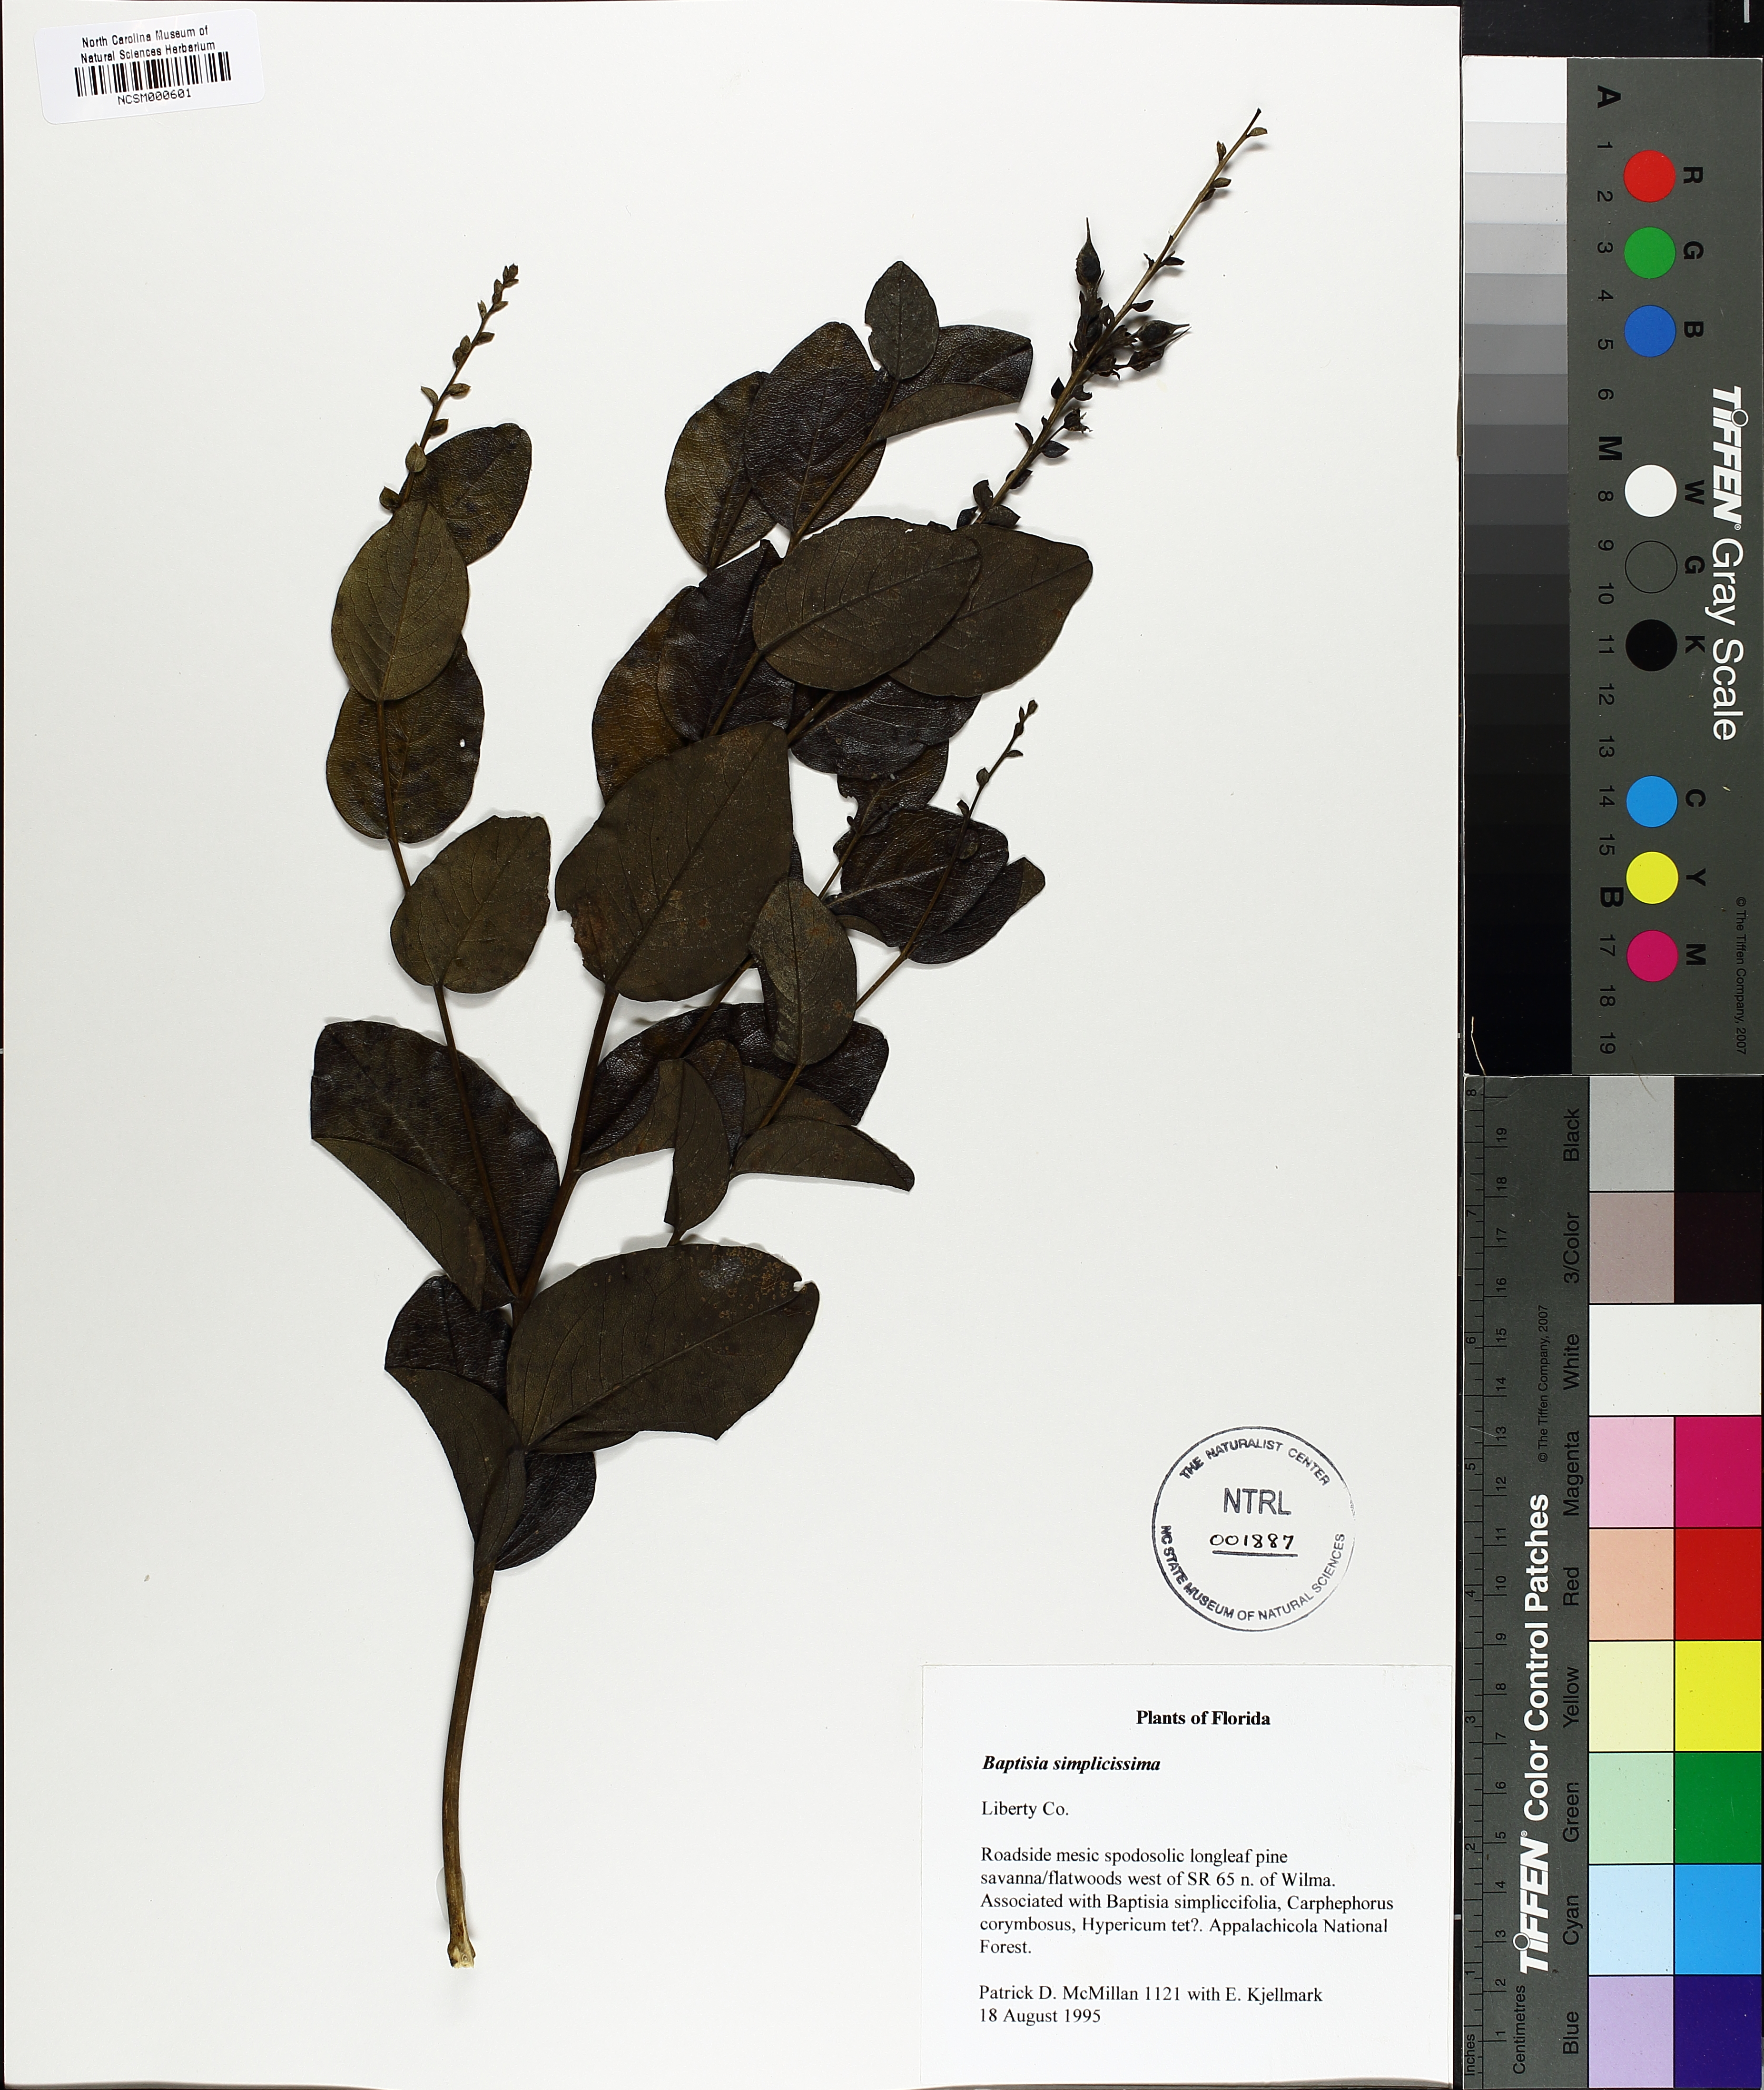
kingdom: Plantae
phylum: Tracheophyta
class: Magnoliopsida
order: Fabales
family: Fabaceae
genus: Baptisia
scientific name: Baptisia simplicifolia
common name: Scareweed
